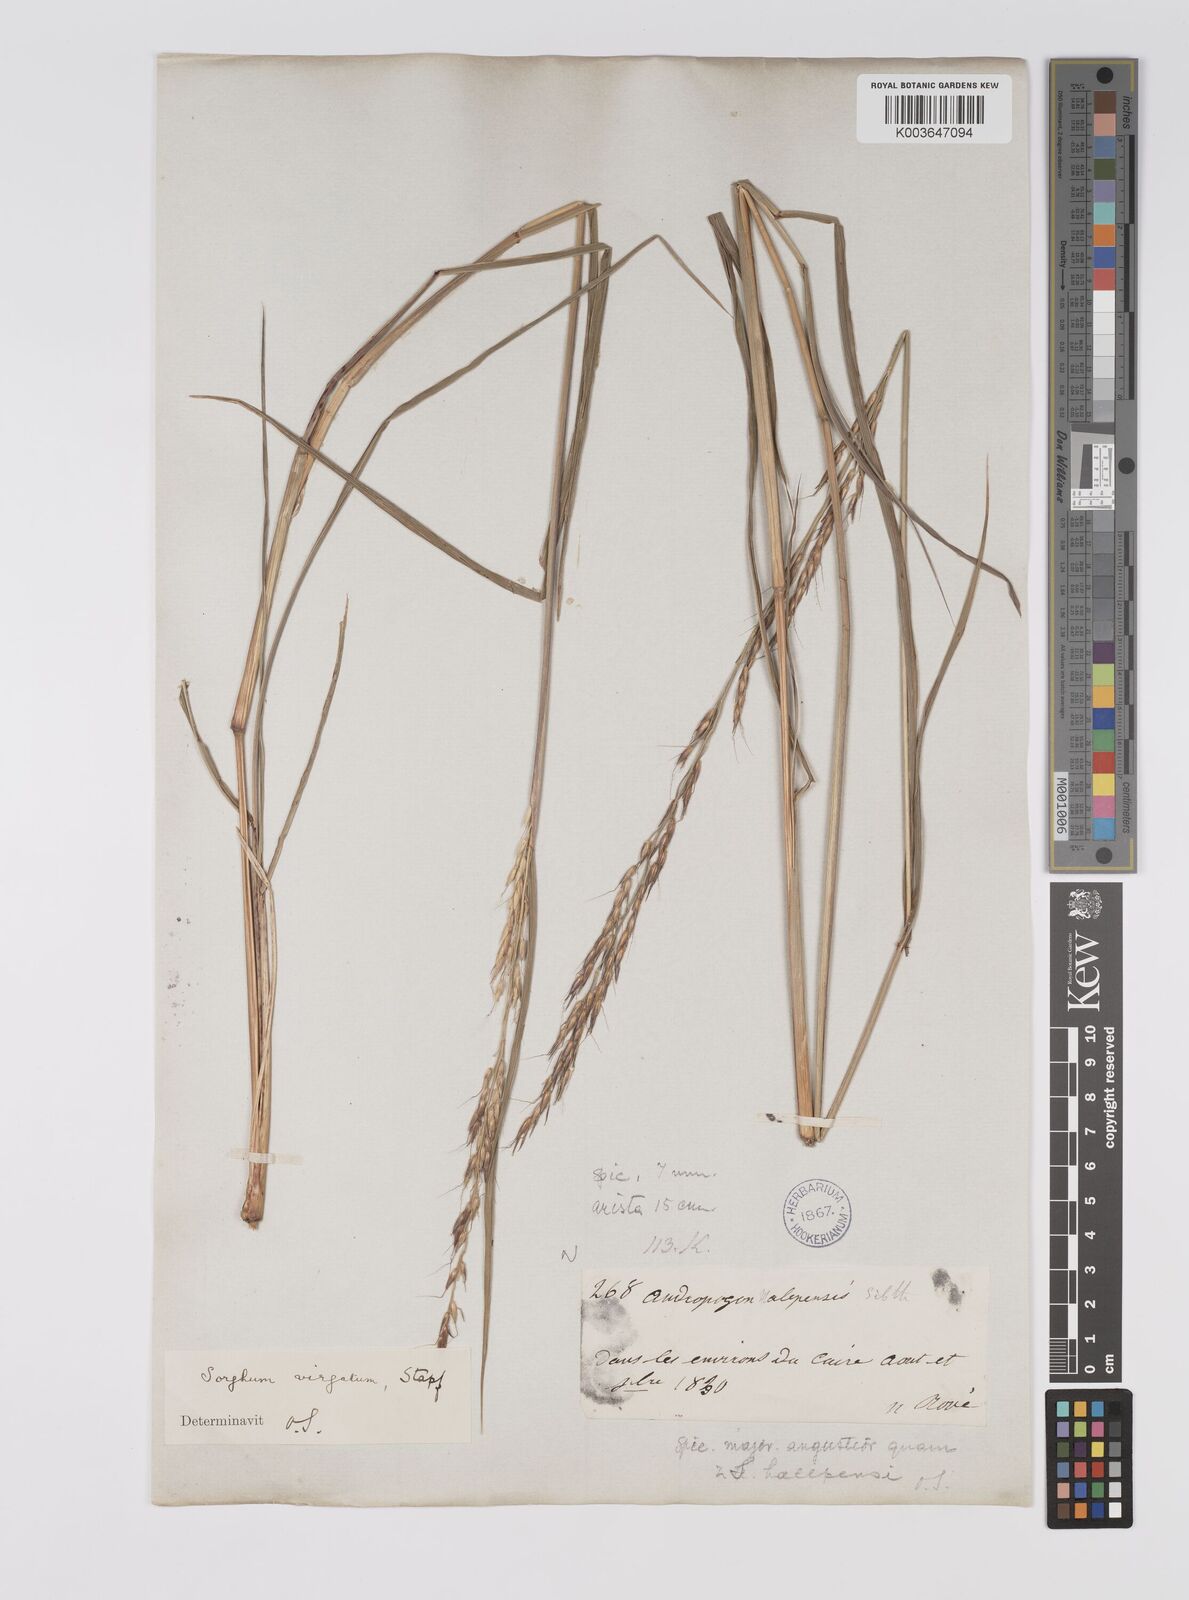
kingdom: Plantae
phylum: Tracheophyta
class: Liliopsida
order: Poales
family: Poaceae
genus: Sorghum
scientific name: Sorghum virgatum
